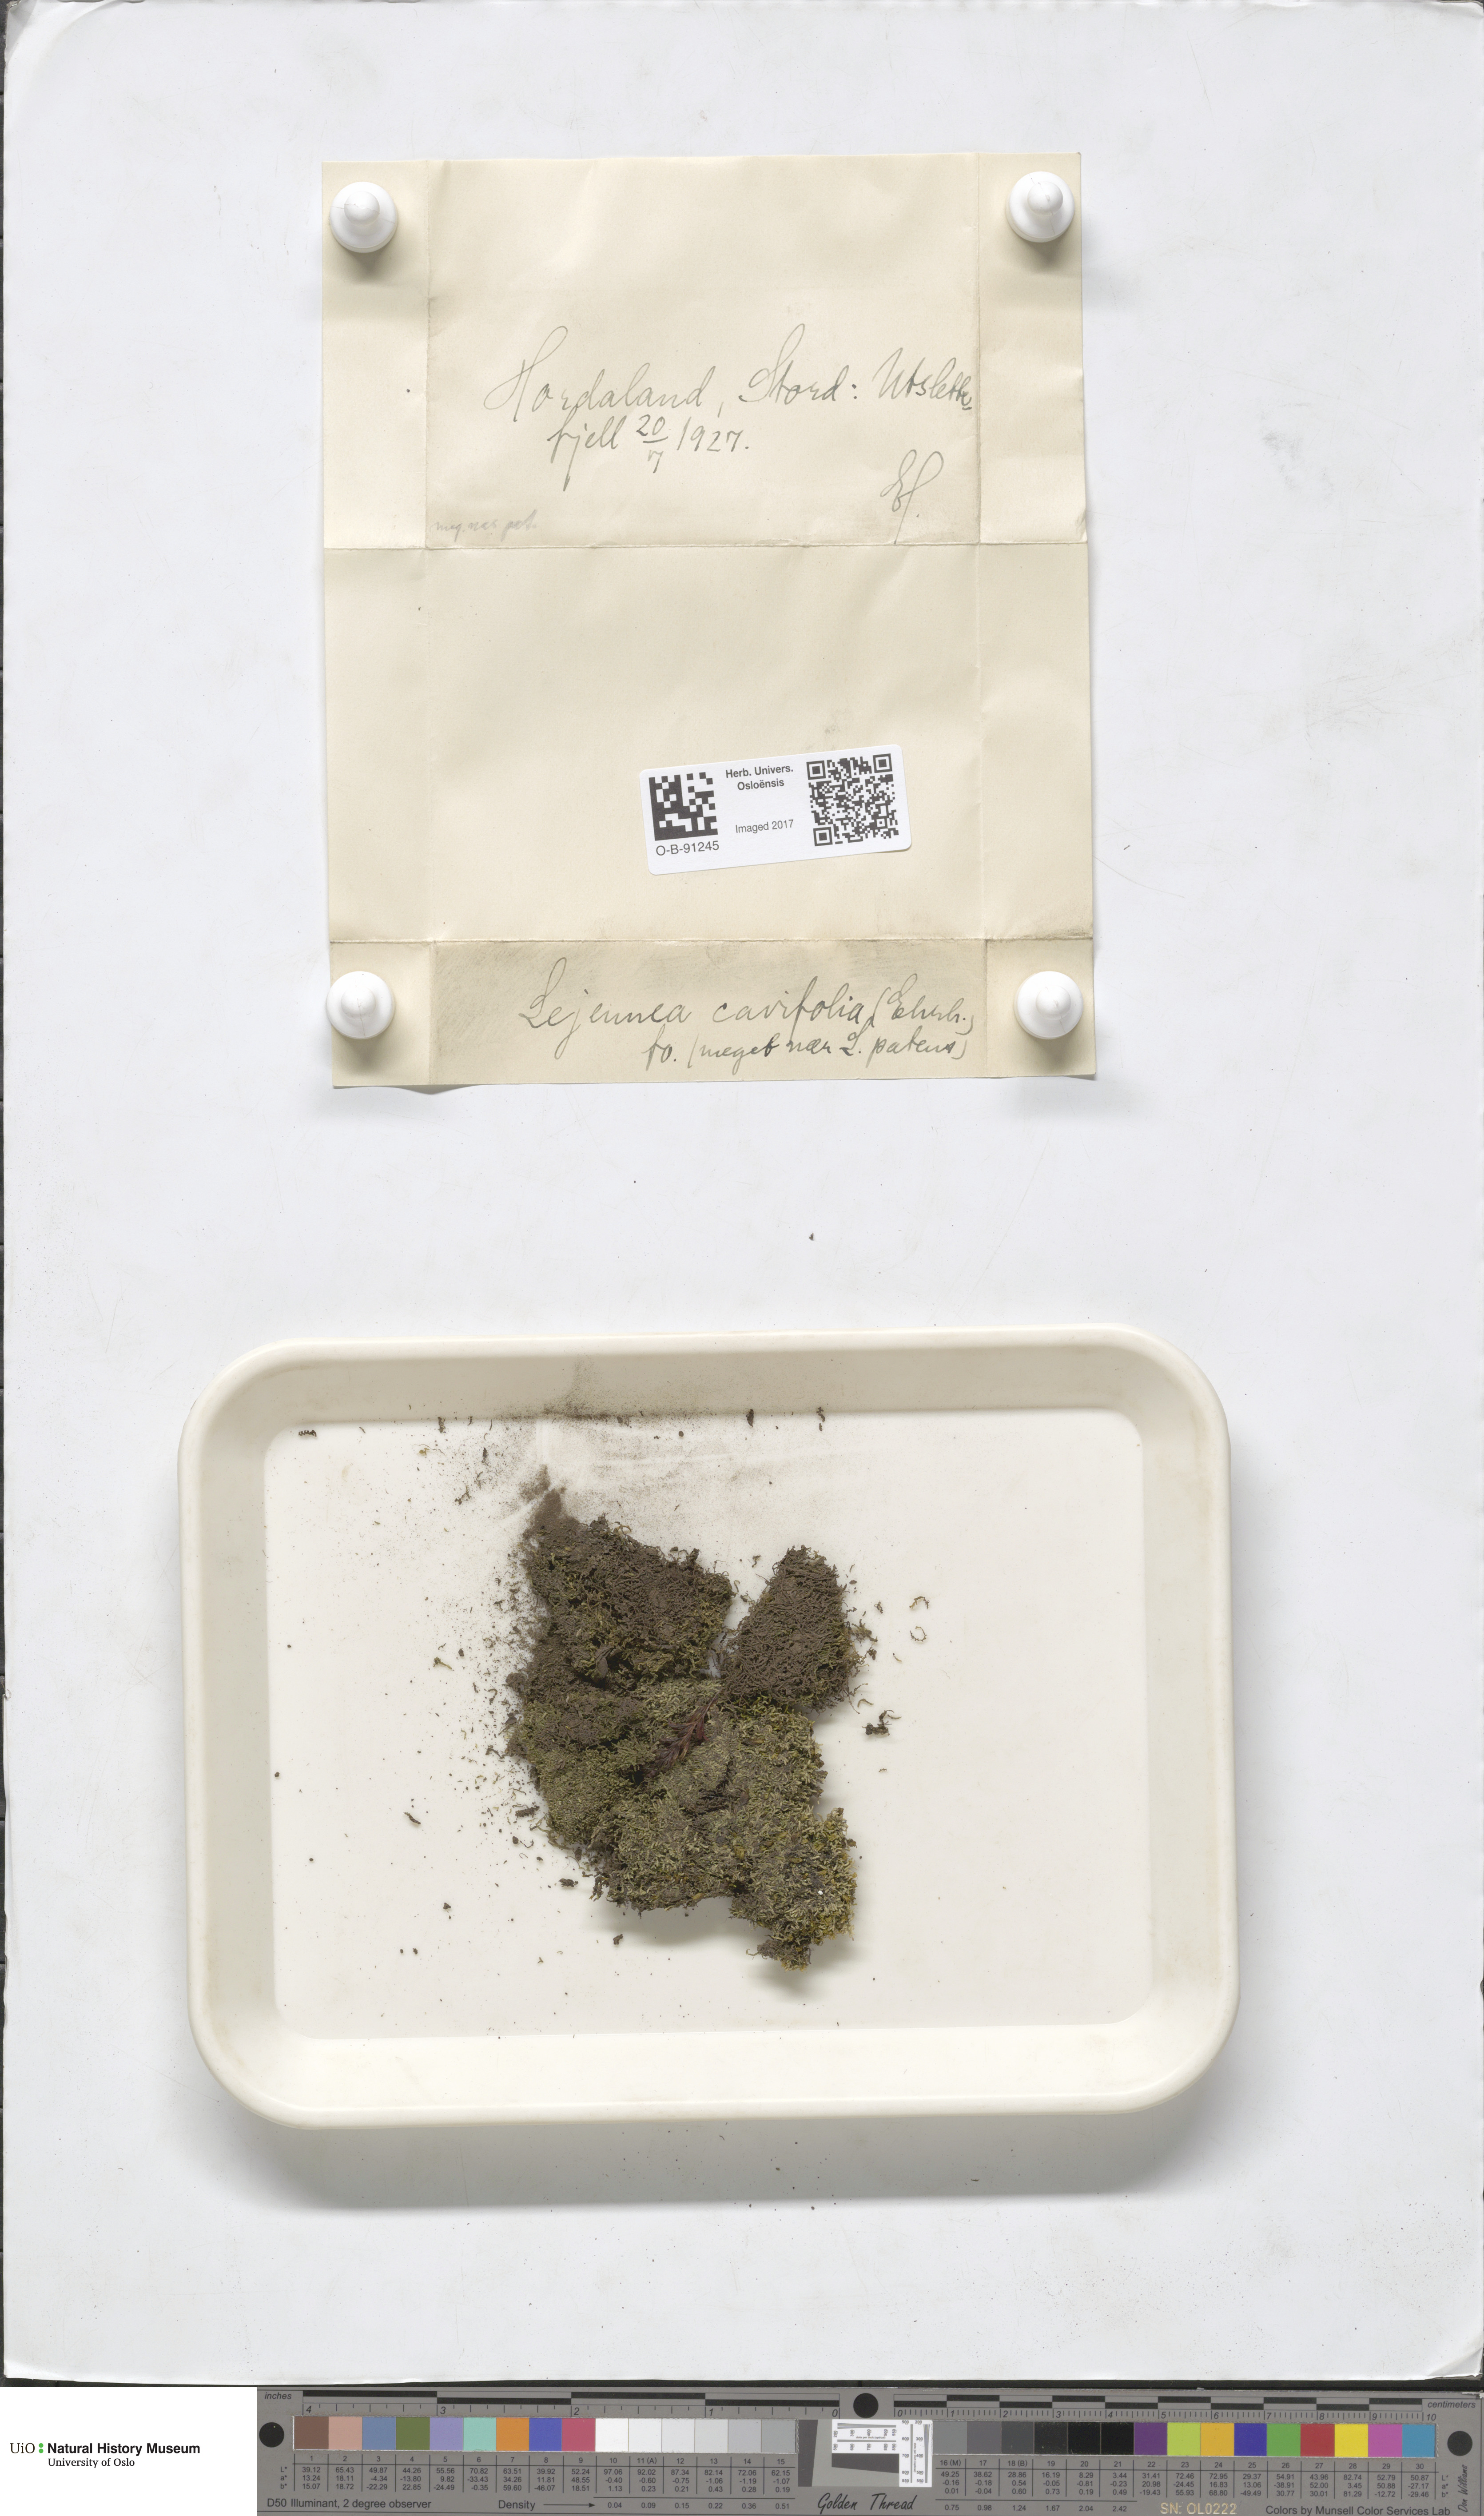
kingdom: Plantae
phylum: Marchantiophyta
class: Jungermanniopsida
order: Porellales
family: Lejeuneaceae
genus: Lejeunea
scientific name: Lejeunea cavifolia
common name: Least pouncewort
